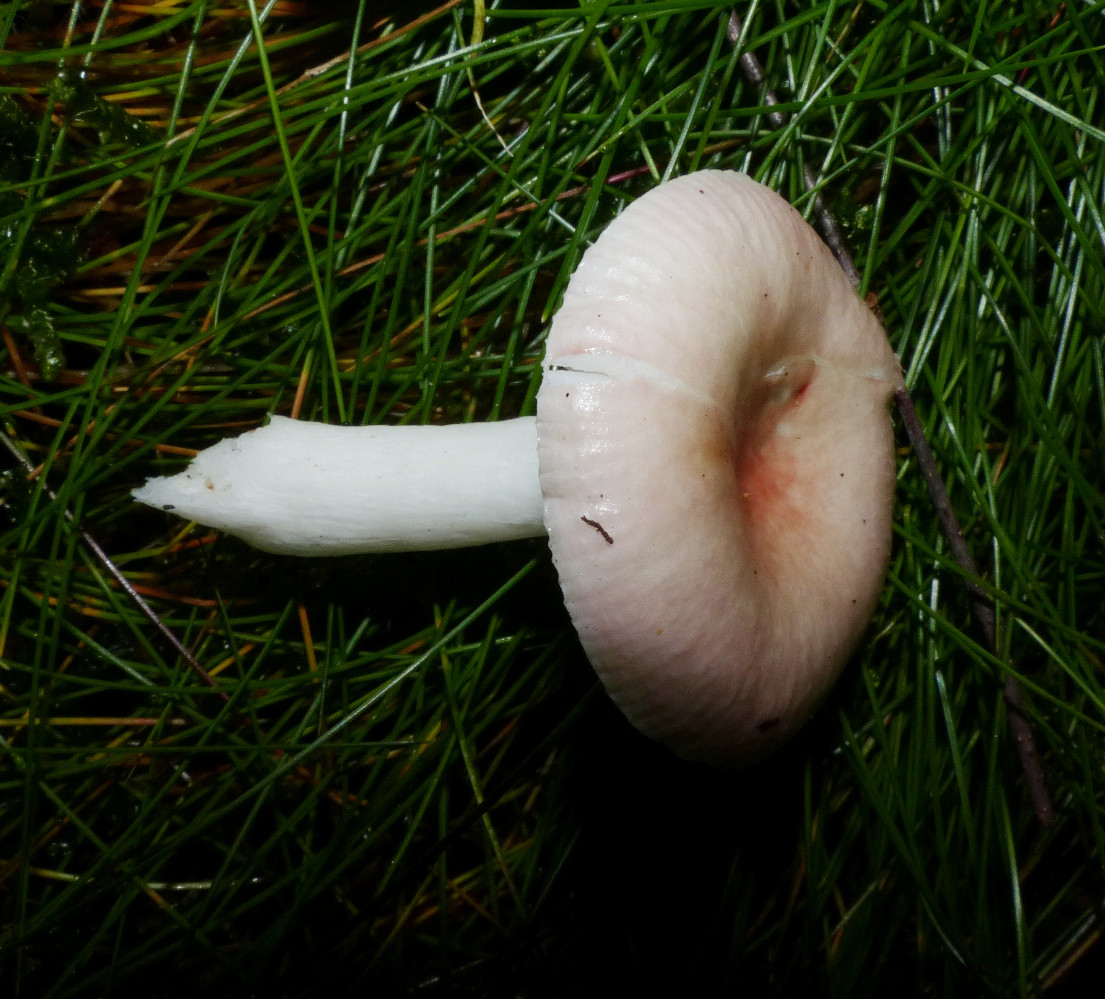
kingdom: Fungi
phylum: Basidiomycota
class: Agaricomycetes
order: Russulales
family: Russulaceae
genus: Russula
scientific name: Russula betularum
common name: bleg gift-skørhat
